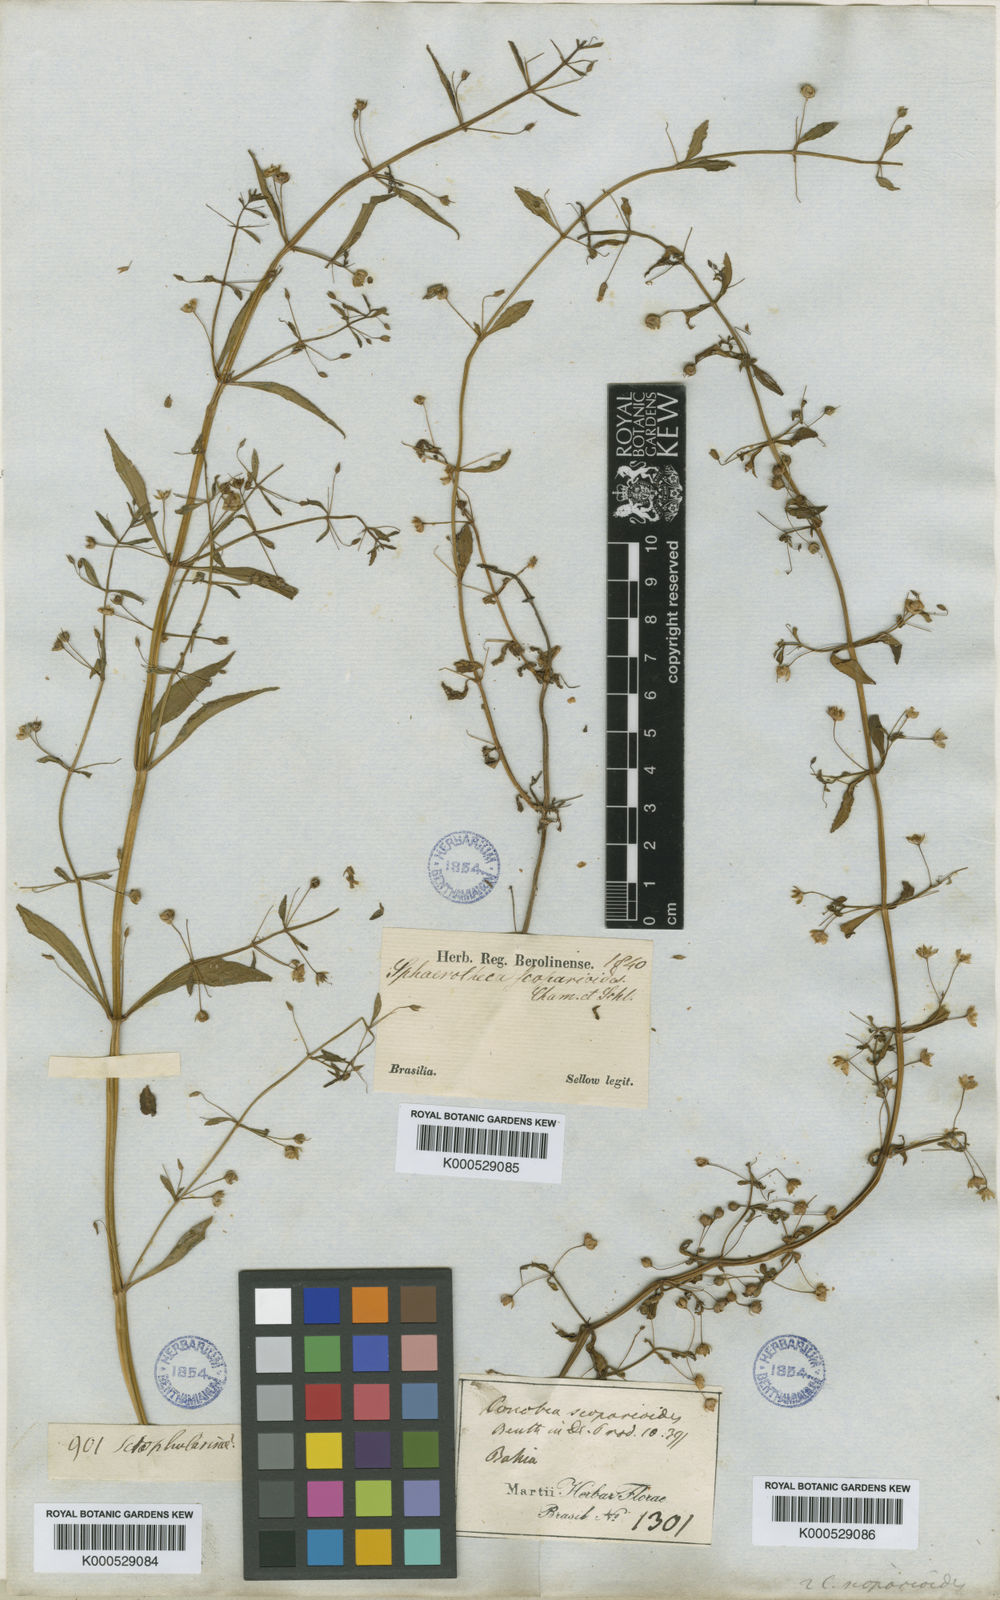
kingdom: Plantae
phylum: Tracheophyta
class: Magnoliopsida
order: Lamiales
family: Plantaginaceae
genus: Conobea
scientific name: Conobea scoparioides
